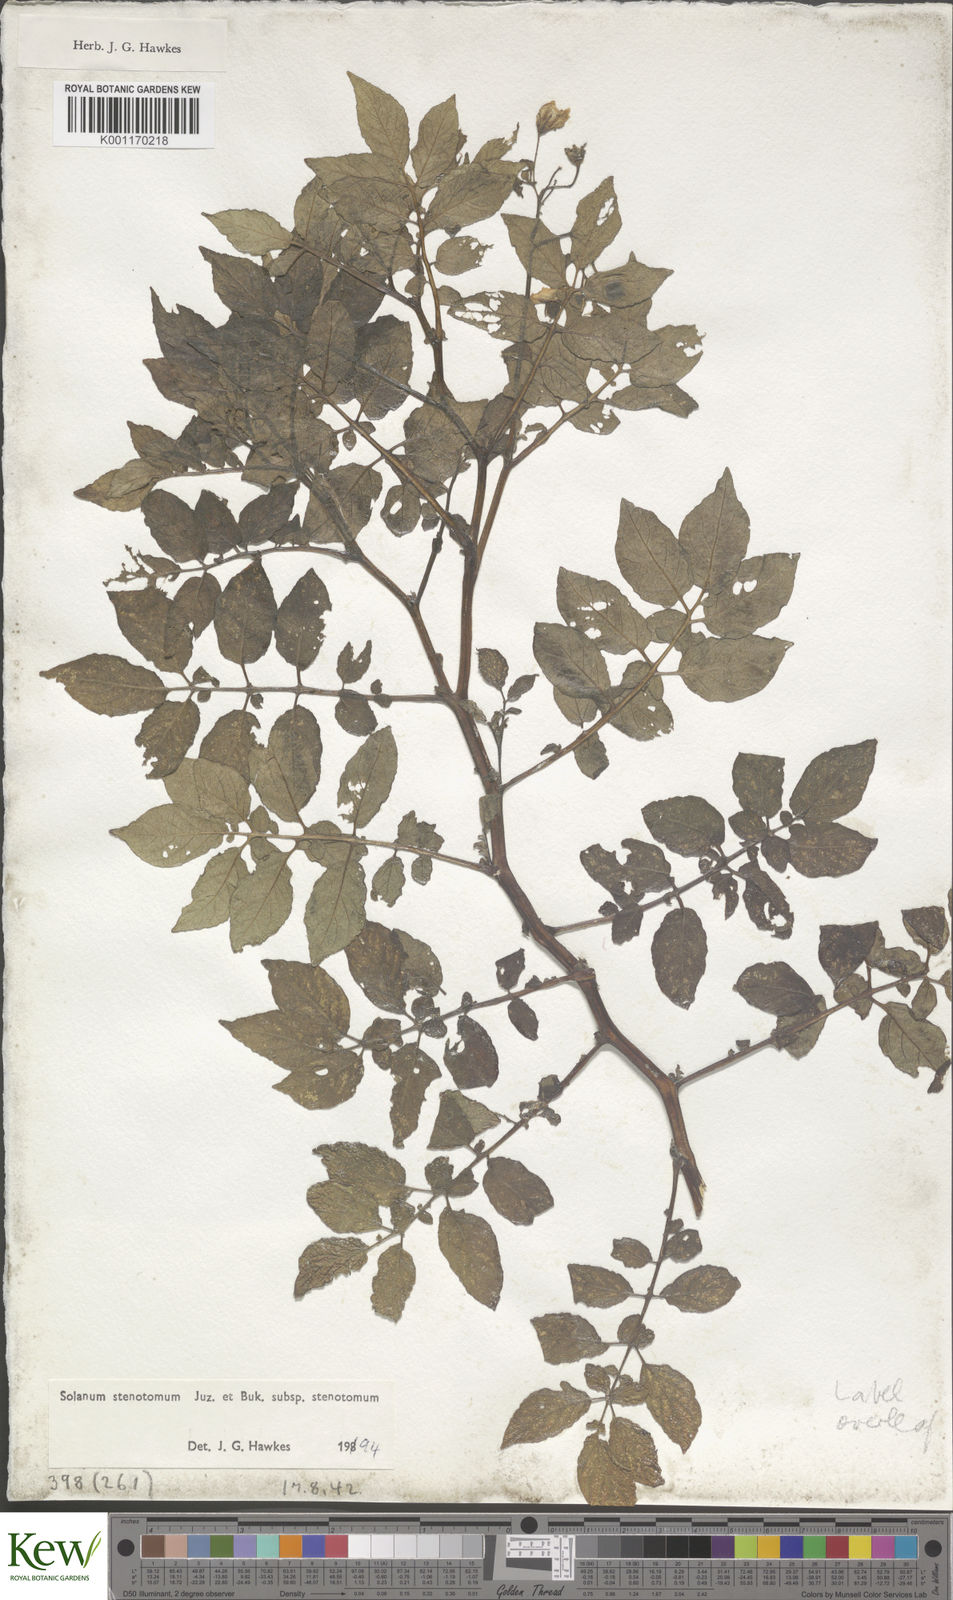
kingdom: Plantae
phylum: Tracheophyta
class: Magnoliopsida
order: Solanales
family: Solanaceae
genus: Solanum
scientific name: Solanum tuberosum
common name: Potato
